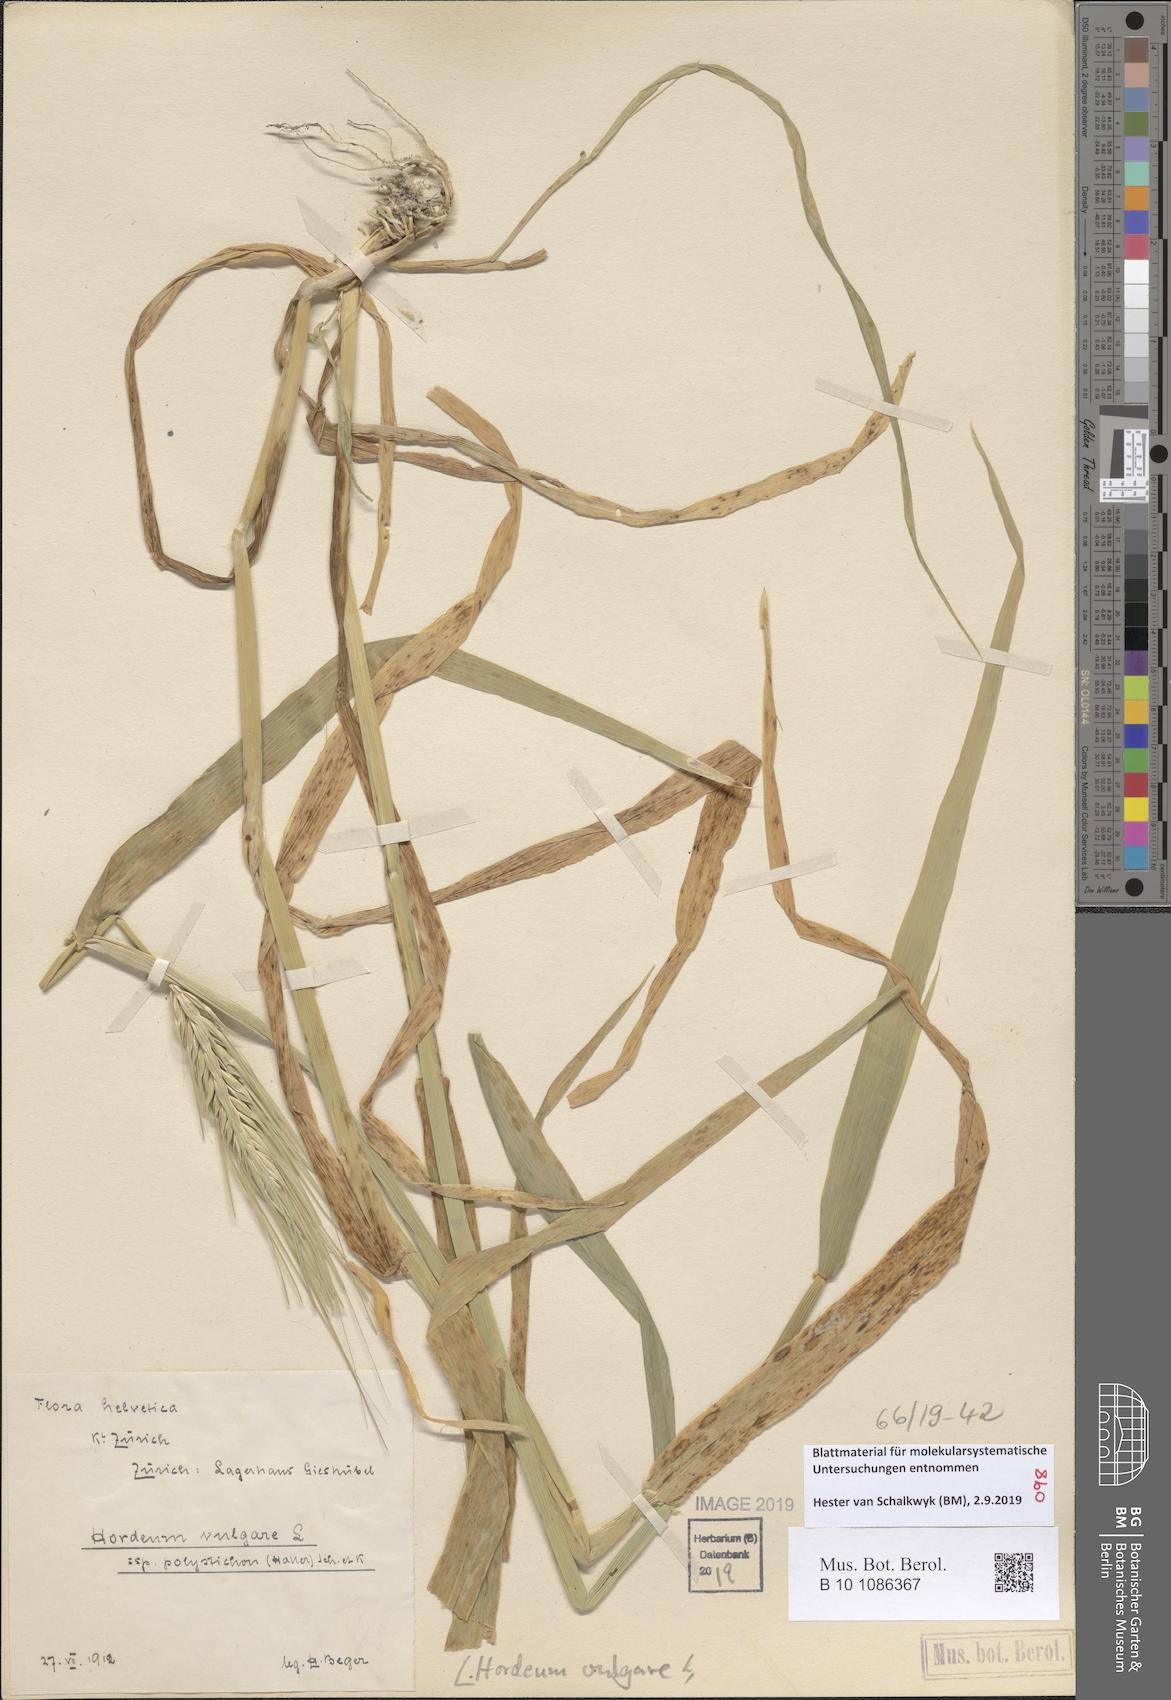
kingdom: Plantae
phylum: Tracheophyta
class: Liliopsida
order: Poales
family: Poaceae
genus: Hordeum
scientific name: Hordeum vulgare
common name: Common barley
